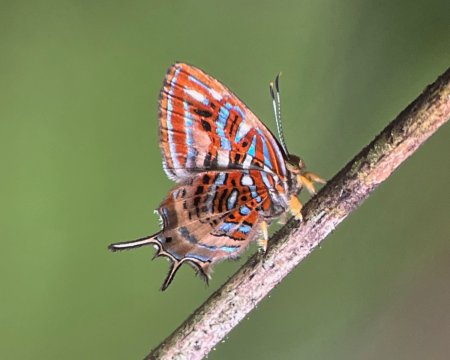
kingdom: Animalia
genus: Charis
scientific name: Charis chrysus
